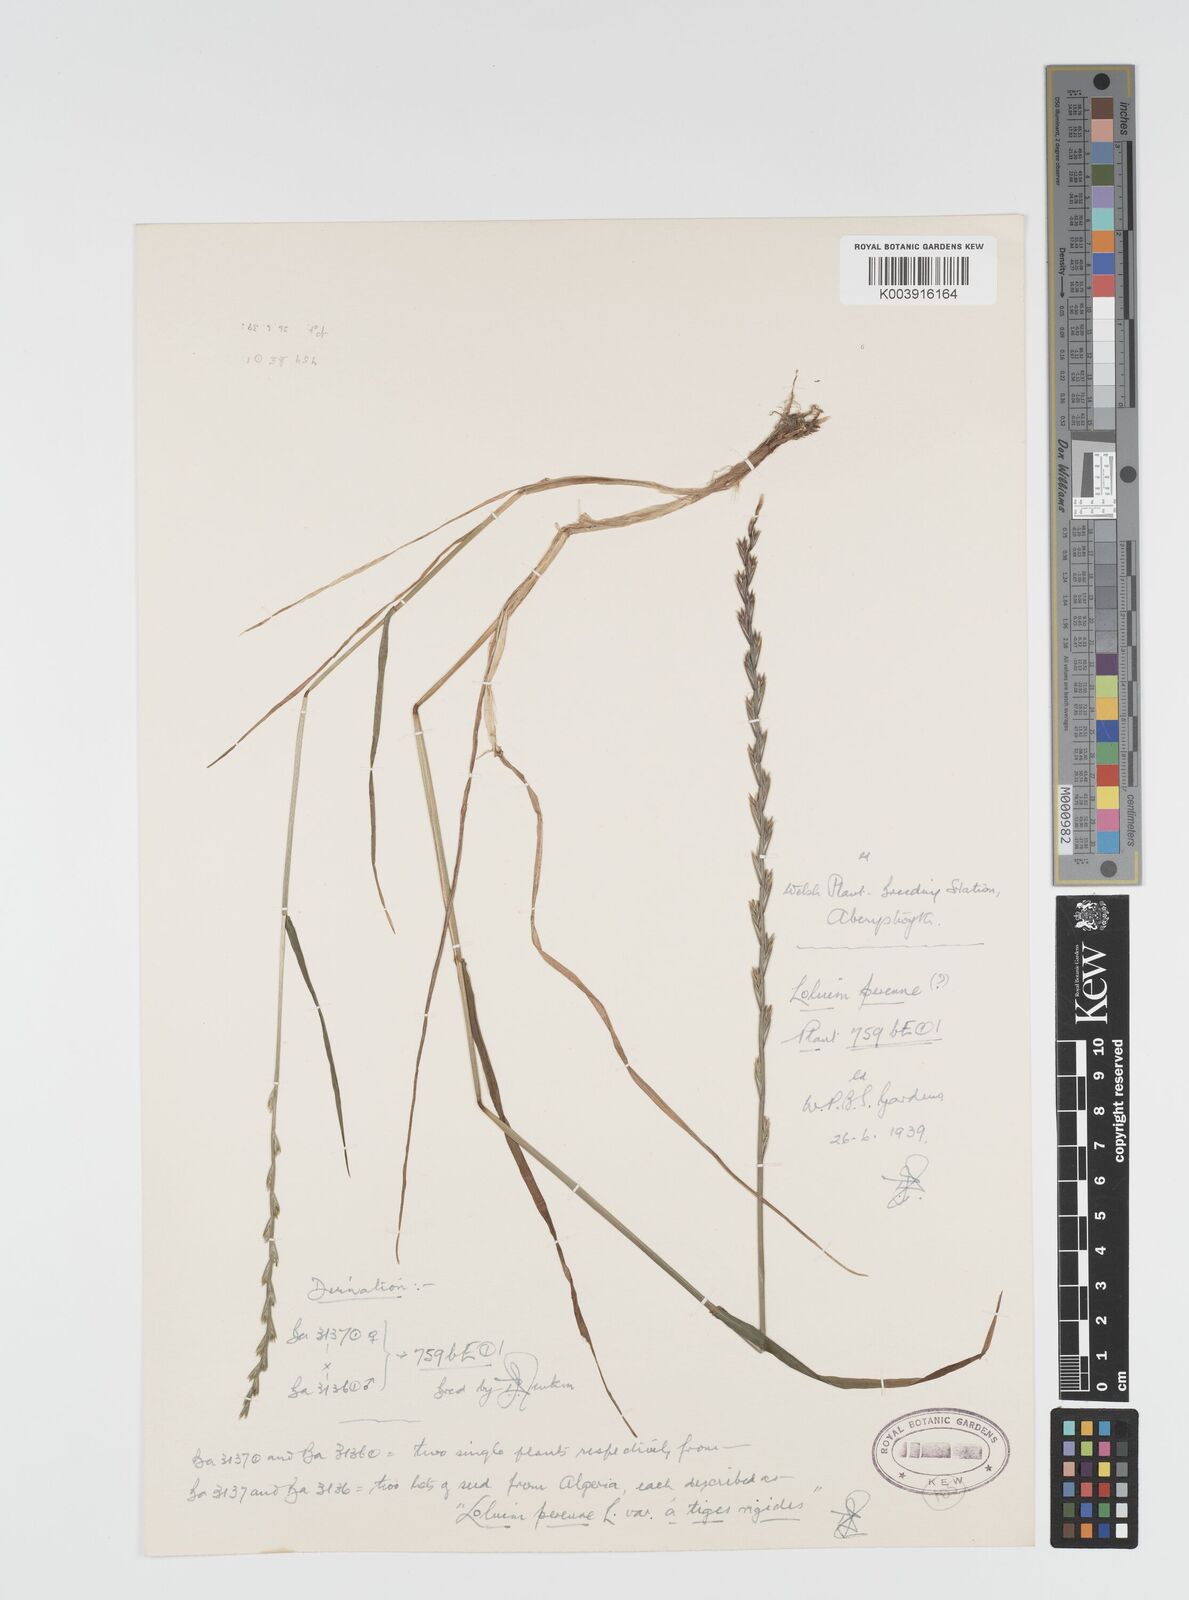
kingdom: Plantae
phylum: Tracheophyta
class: Liliopsida
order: Poales
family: Poaceae
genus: Lolium
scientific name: Lolium rigidum
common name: Wimmera ryegrass
